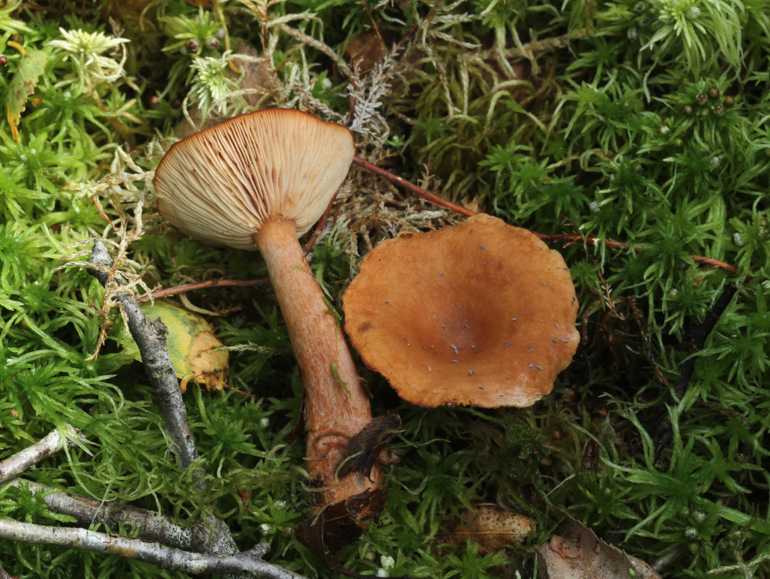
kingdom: Fungi
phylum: Basidiomycota
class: Agaricomycetes
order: Russulales
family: Russulaceae
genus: Lactarius
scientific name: Lactarius tabidus
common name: rynket mælkehat
